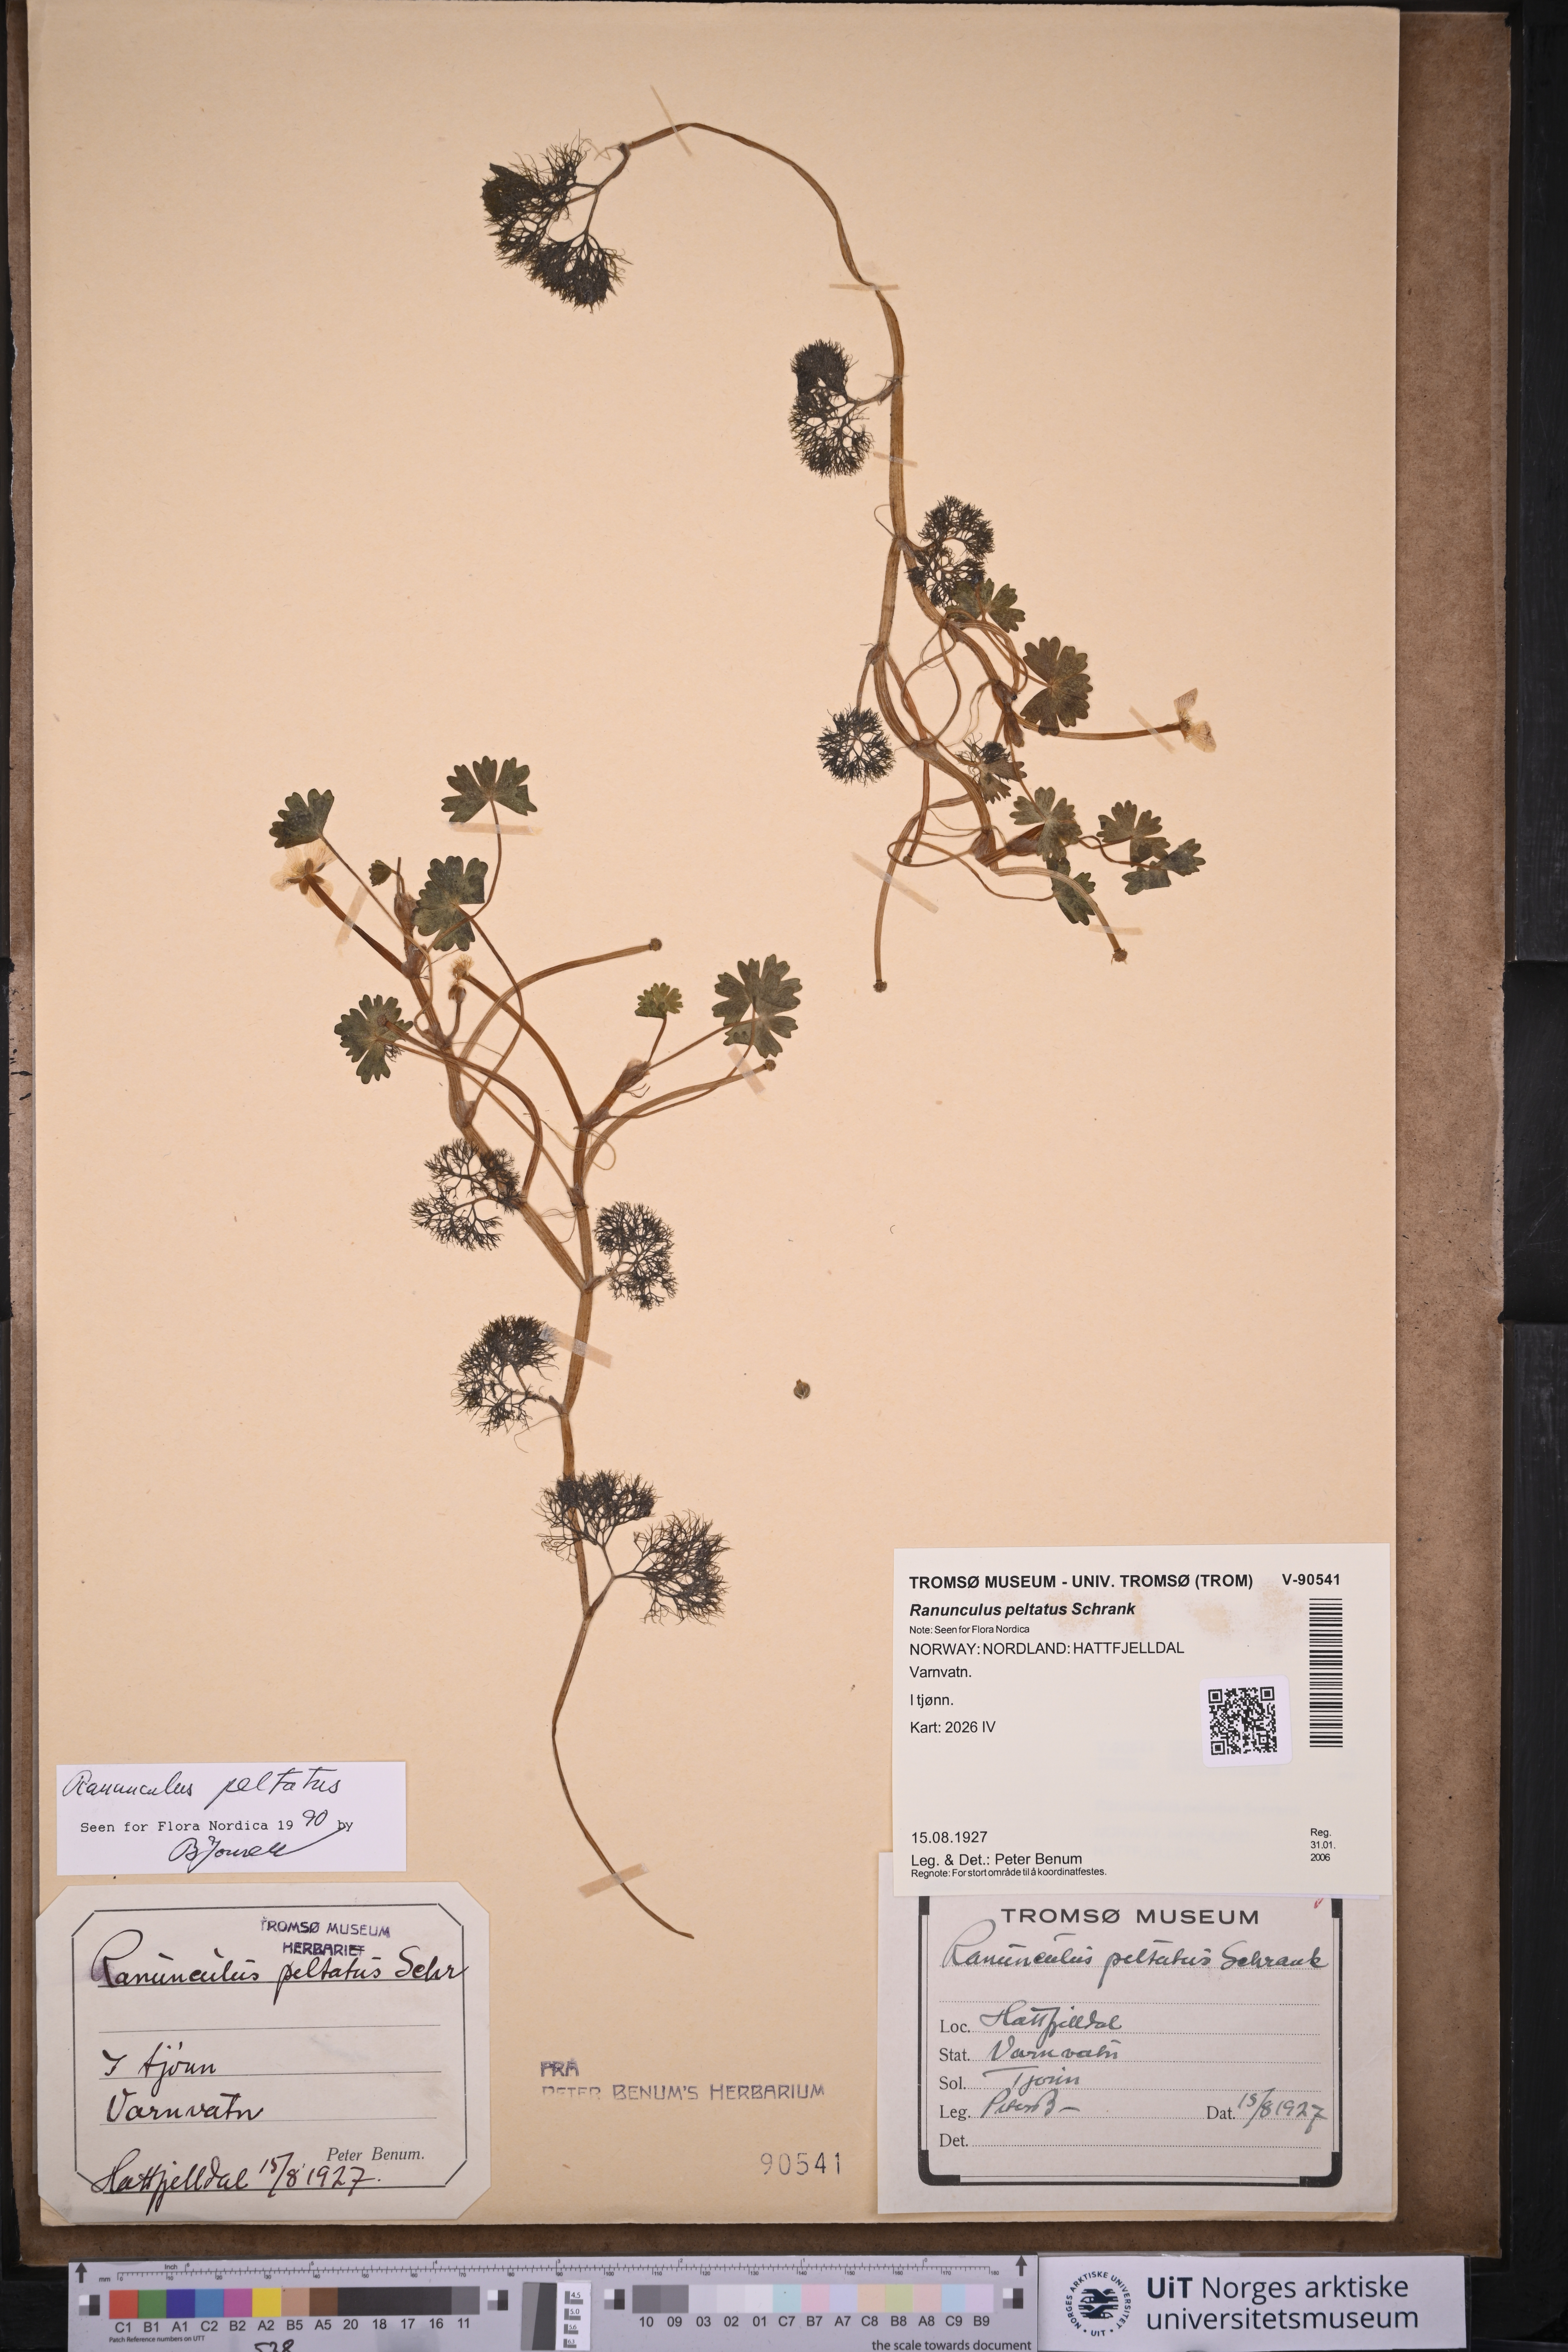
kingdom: Plantae
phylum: Tracheophyta
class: Magnoliopsida
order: Ranunculales
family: Ranunculaceae
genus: Ranunculus
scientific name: Ranunculus peltatus
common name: Pond water-crowfoot
